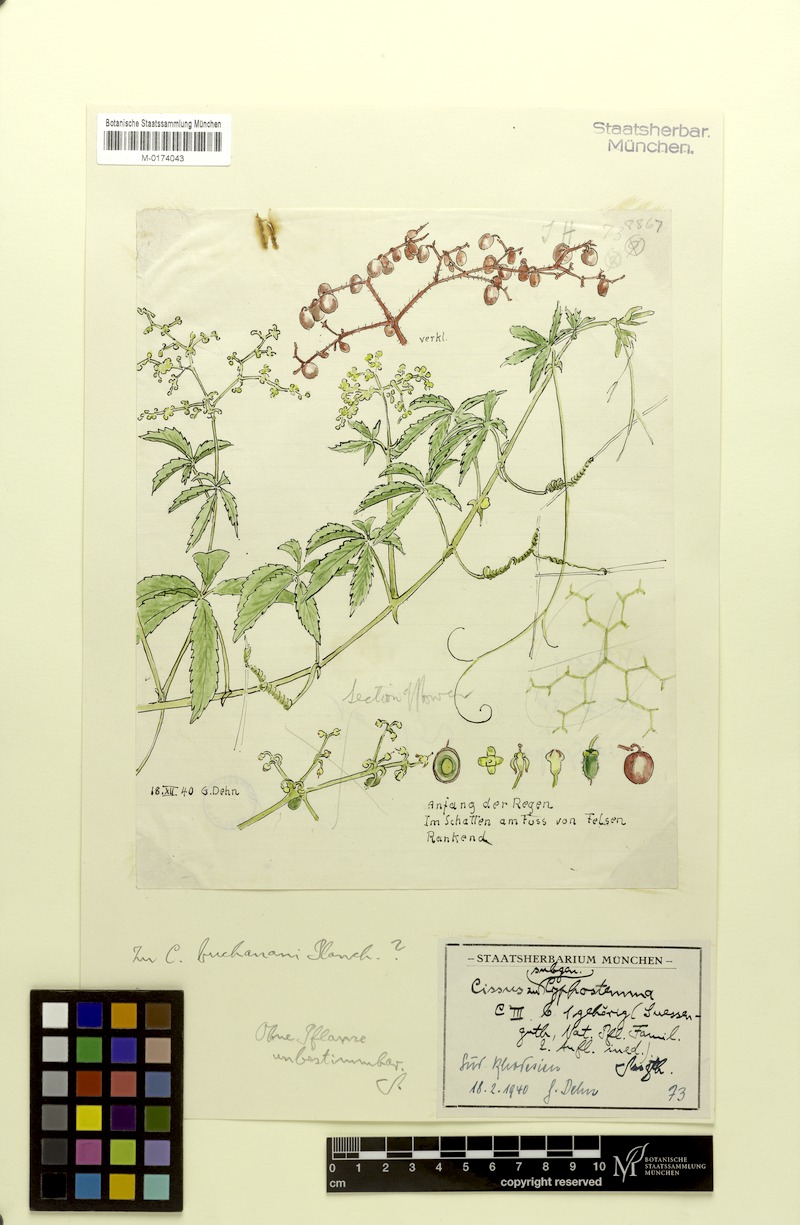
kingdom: Plantae
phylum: Tracheophyta
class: Magnoliopsida
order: Vitales
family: Vitaceae
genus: Cissus
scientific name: Cissus
